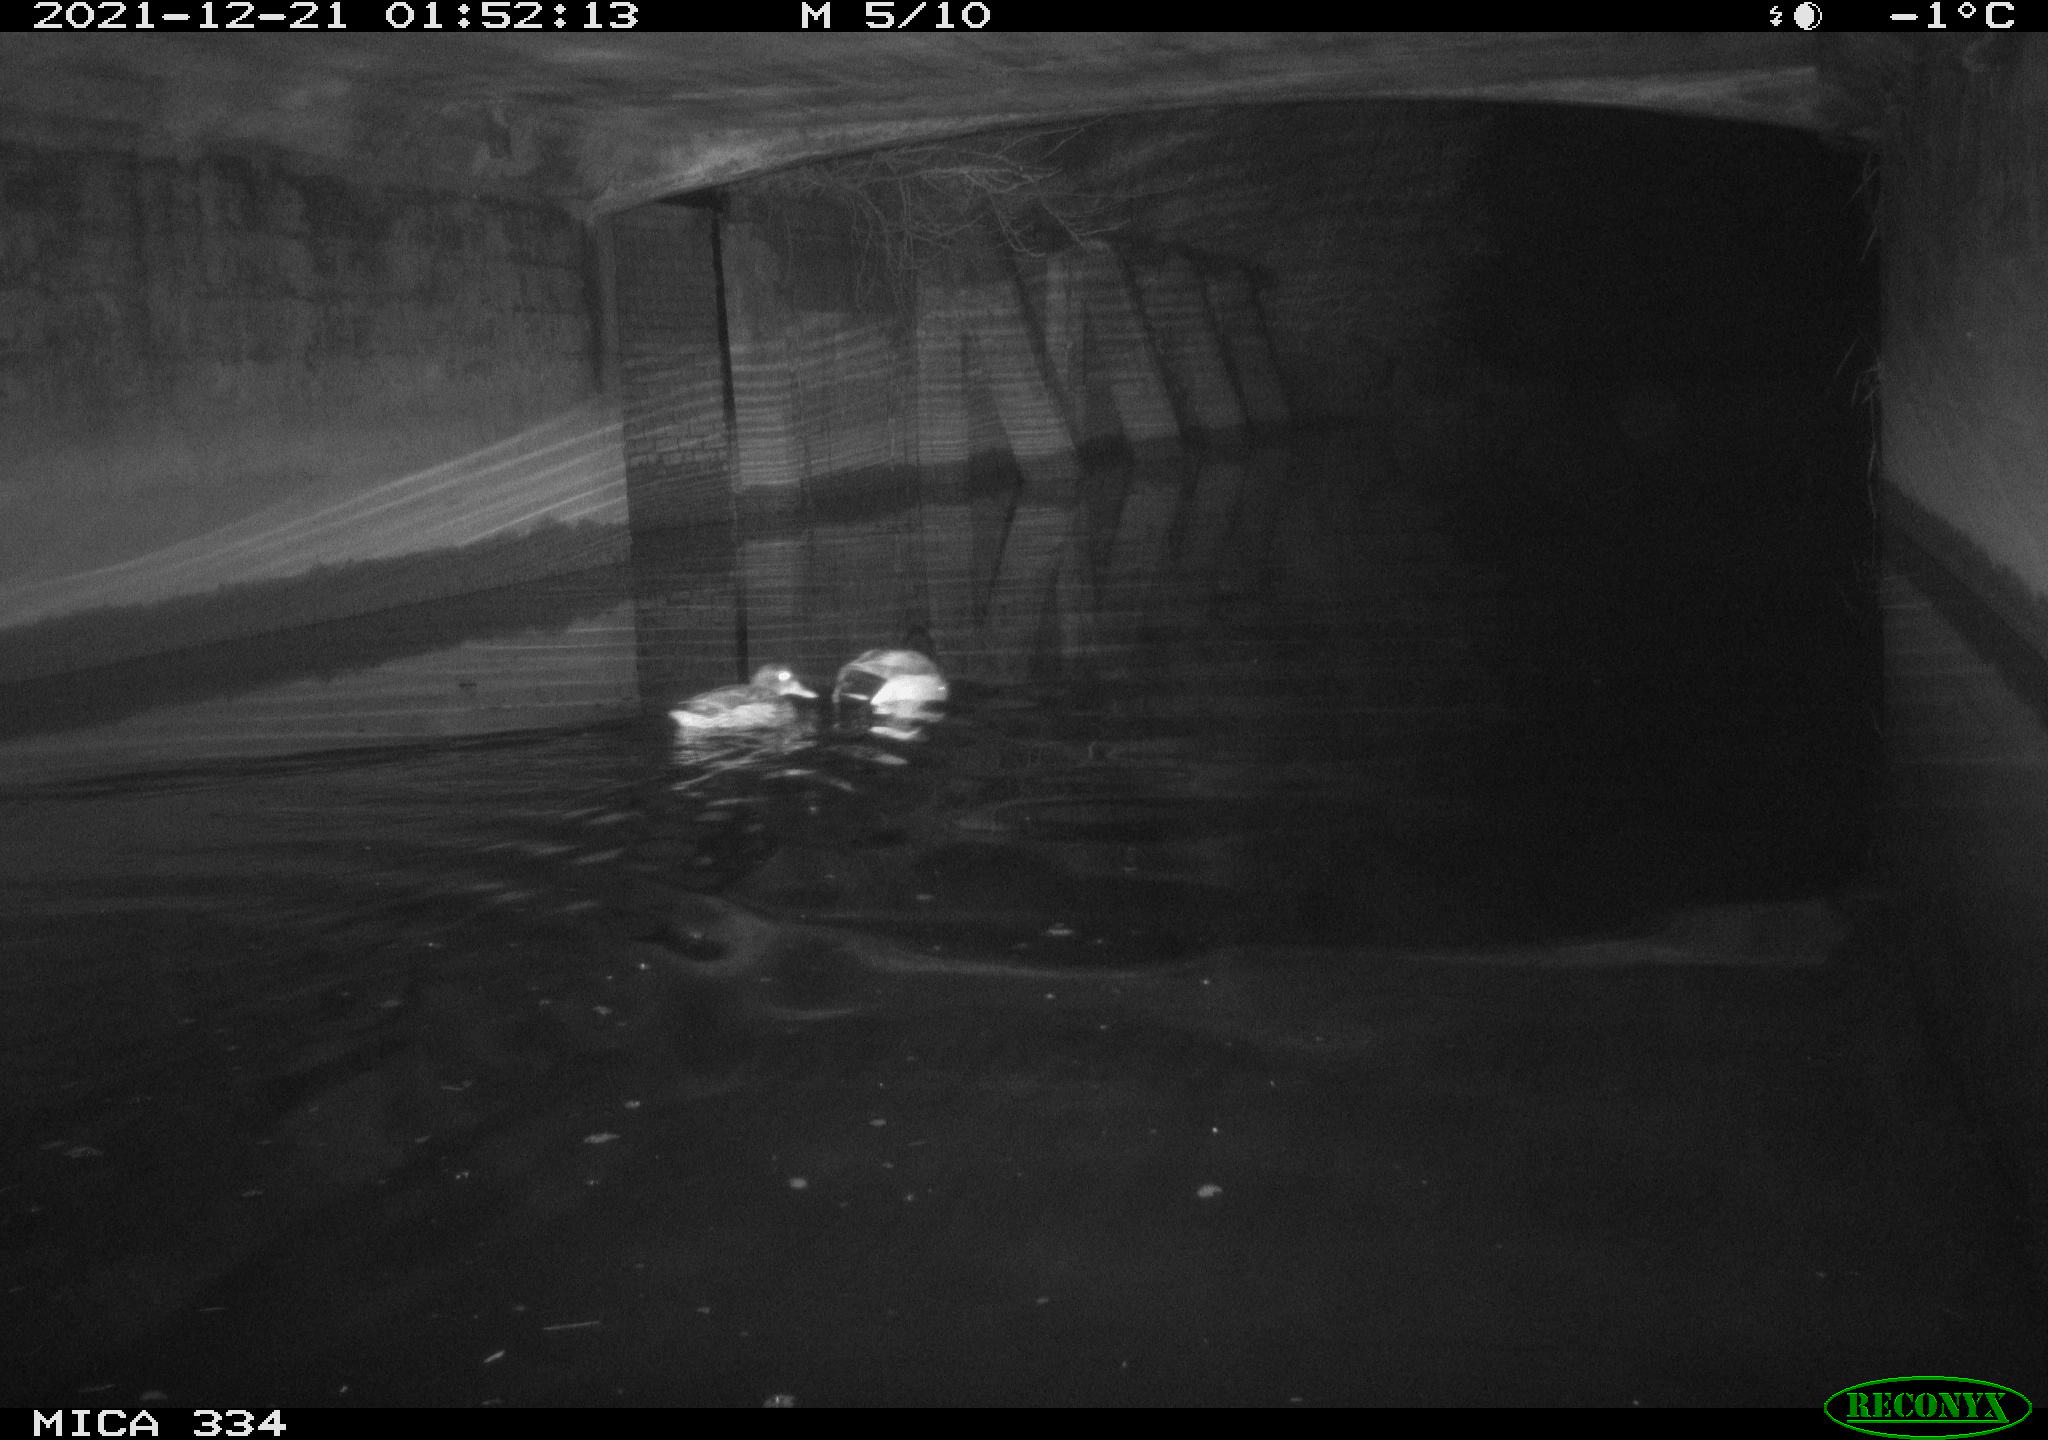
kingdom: Animalia
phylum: Chordata
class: Aves
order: Anseriformes
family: Anatidae
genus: Anas
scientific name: Anas platyrhynchos
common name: Mallard
